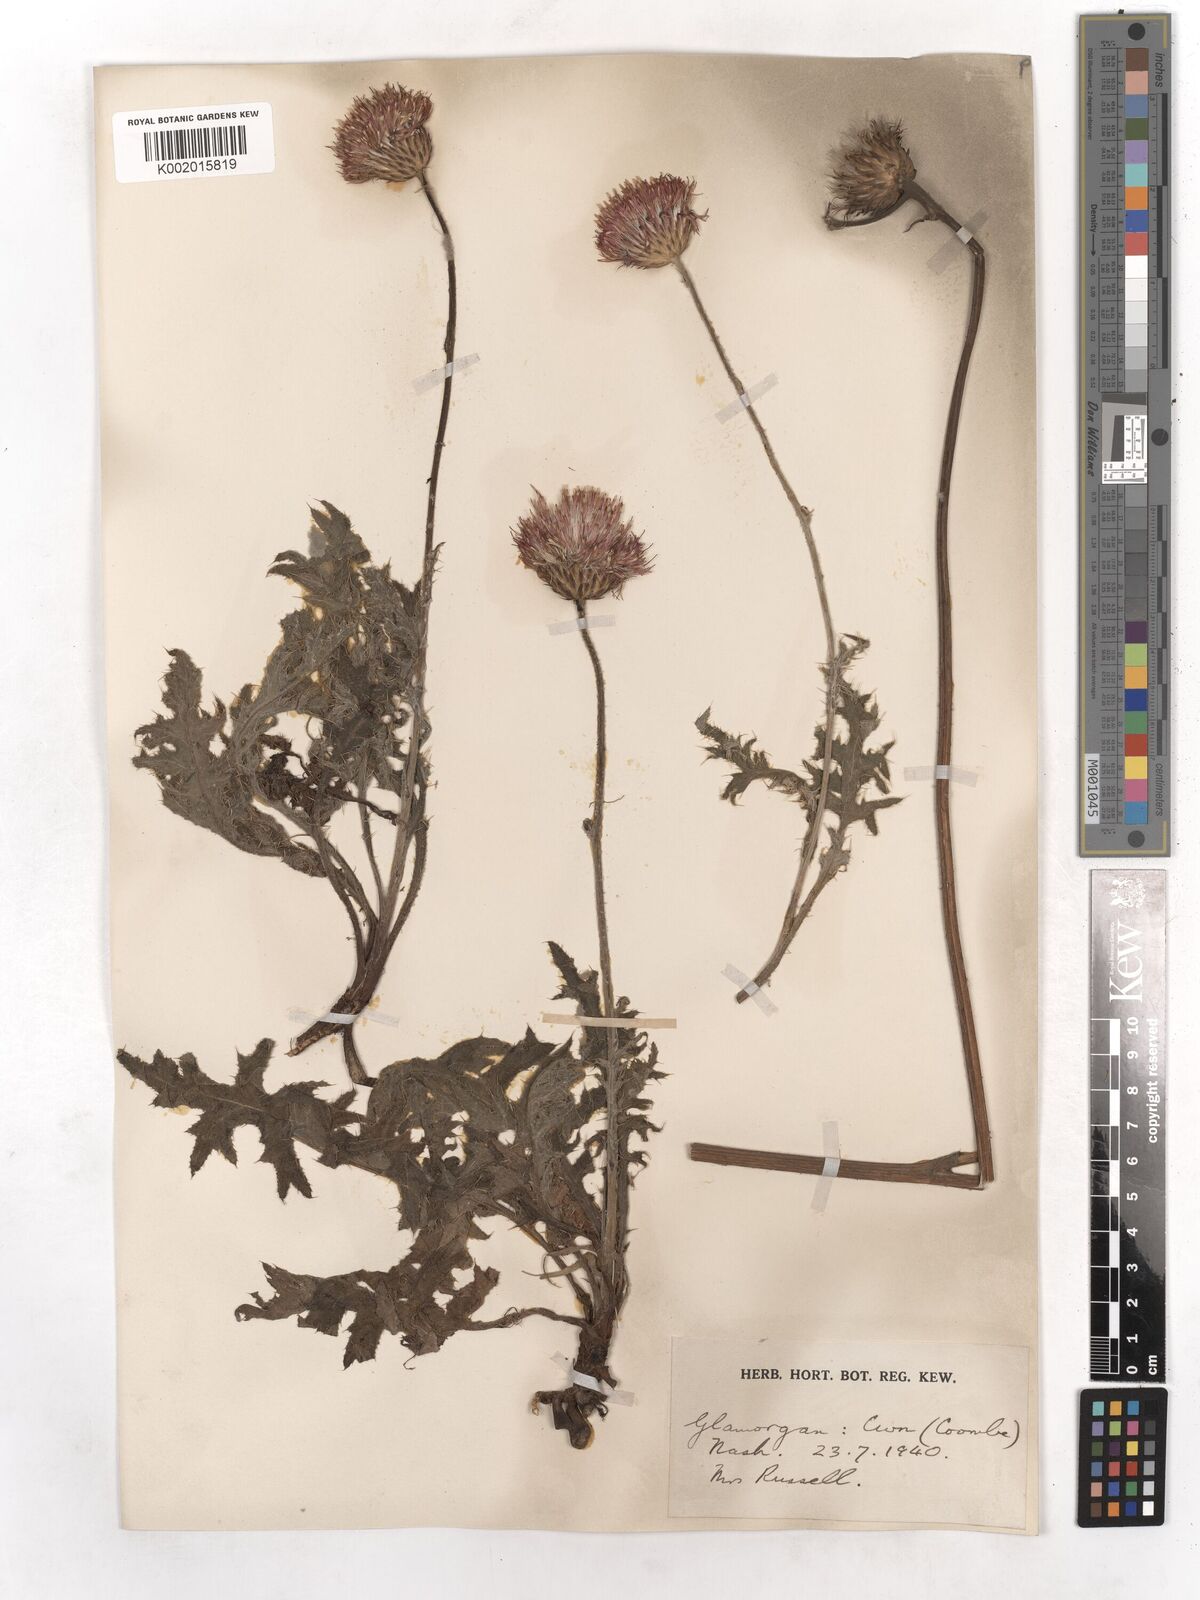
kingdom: Plantae
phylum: Tracheophyta
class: Magnoliopsida
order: Asterales
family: Asteraceae
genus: Cirsium
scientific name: Cirsium tuberosum
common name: Tuberous thistle
